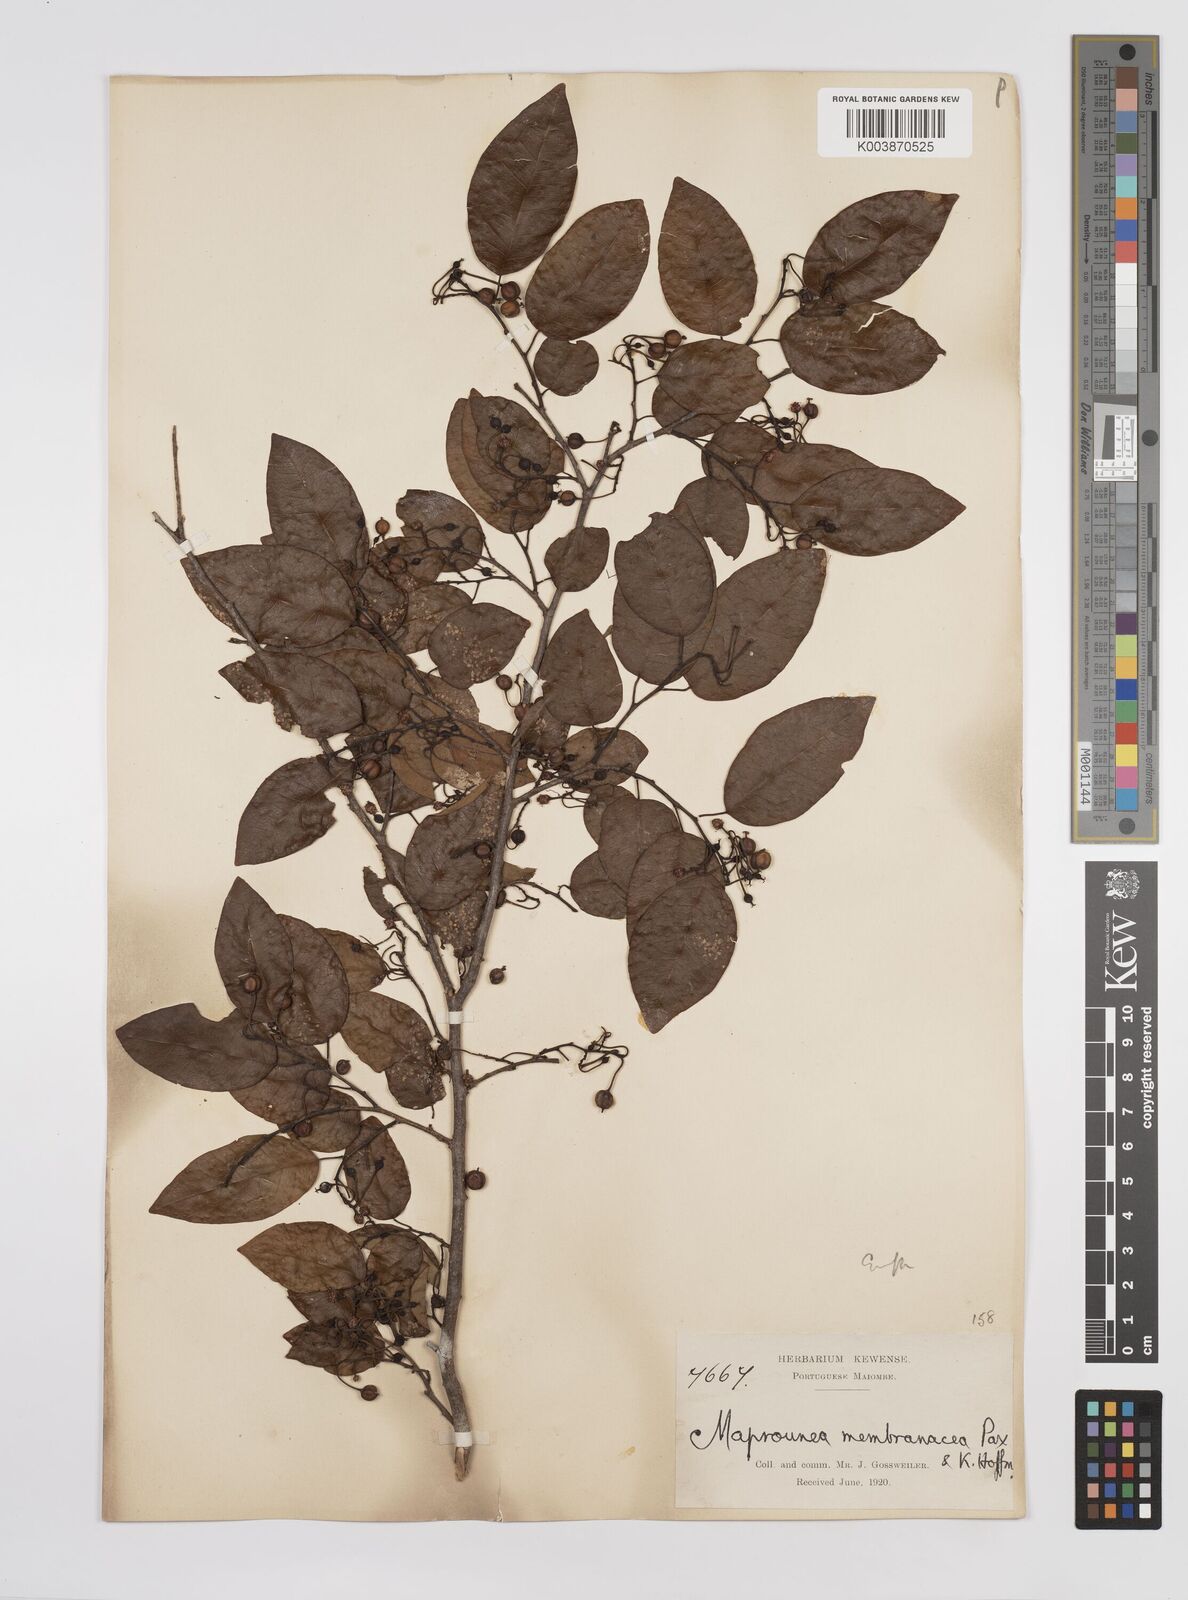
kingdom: Plantae
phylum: Tracheophyta
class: Magnoliopsida
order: Malpighiales
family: Euphorbiaceae
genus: Maprounea
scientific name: Maprounea membranacea
